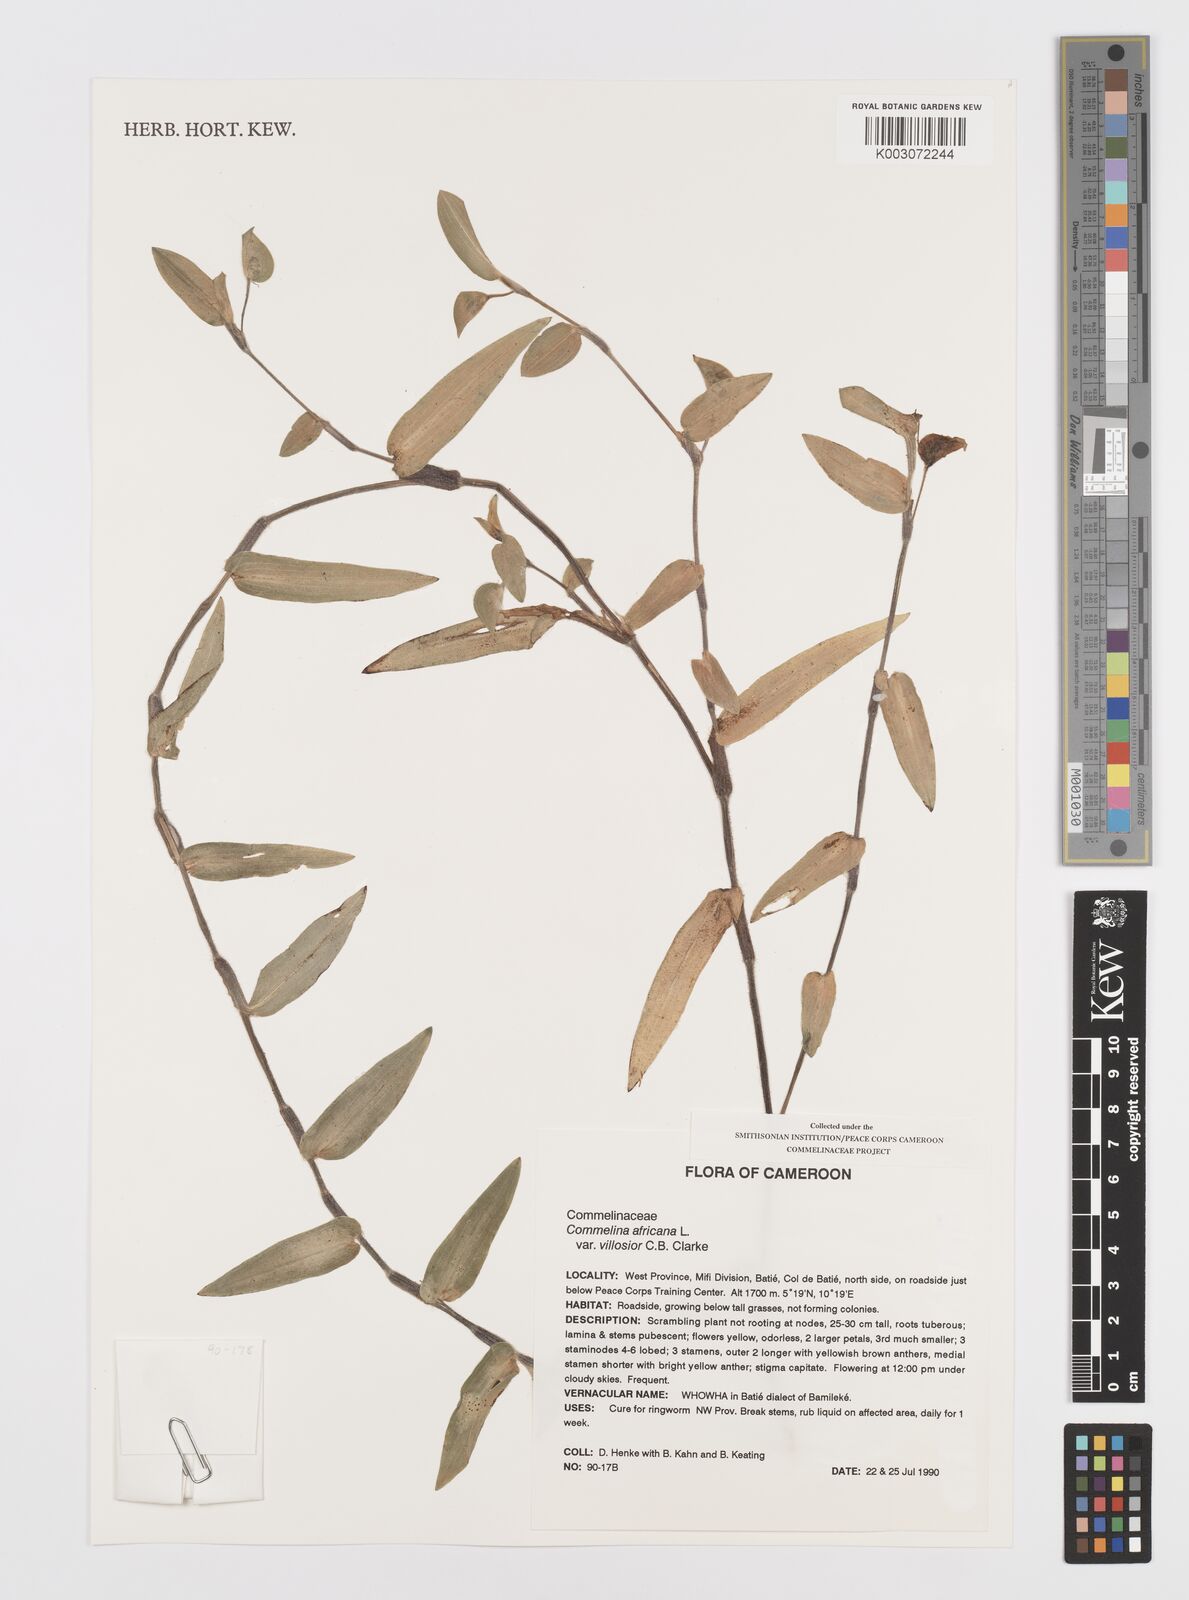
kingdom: Plantae
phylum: Tracheophyta
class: Liliopsida
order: Commelinales
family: Commelinaceae
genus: Commelina
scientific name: Commelina africana
